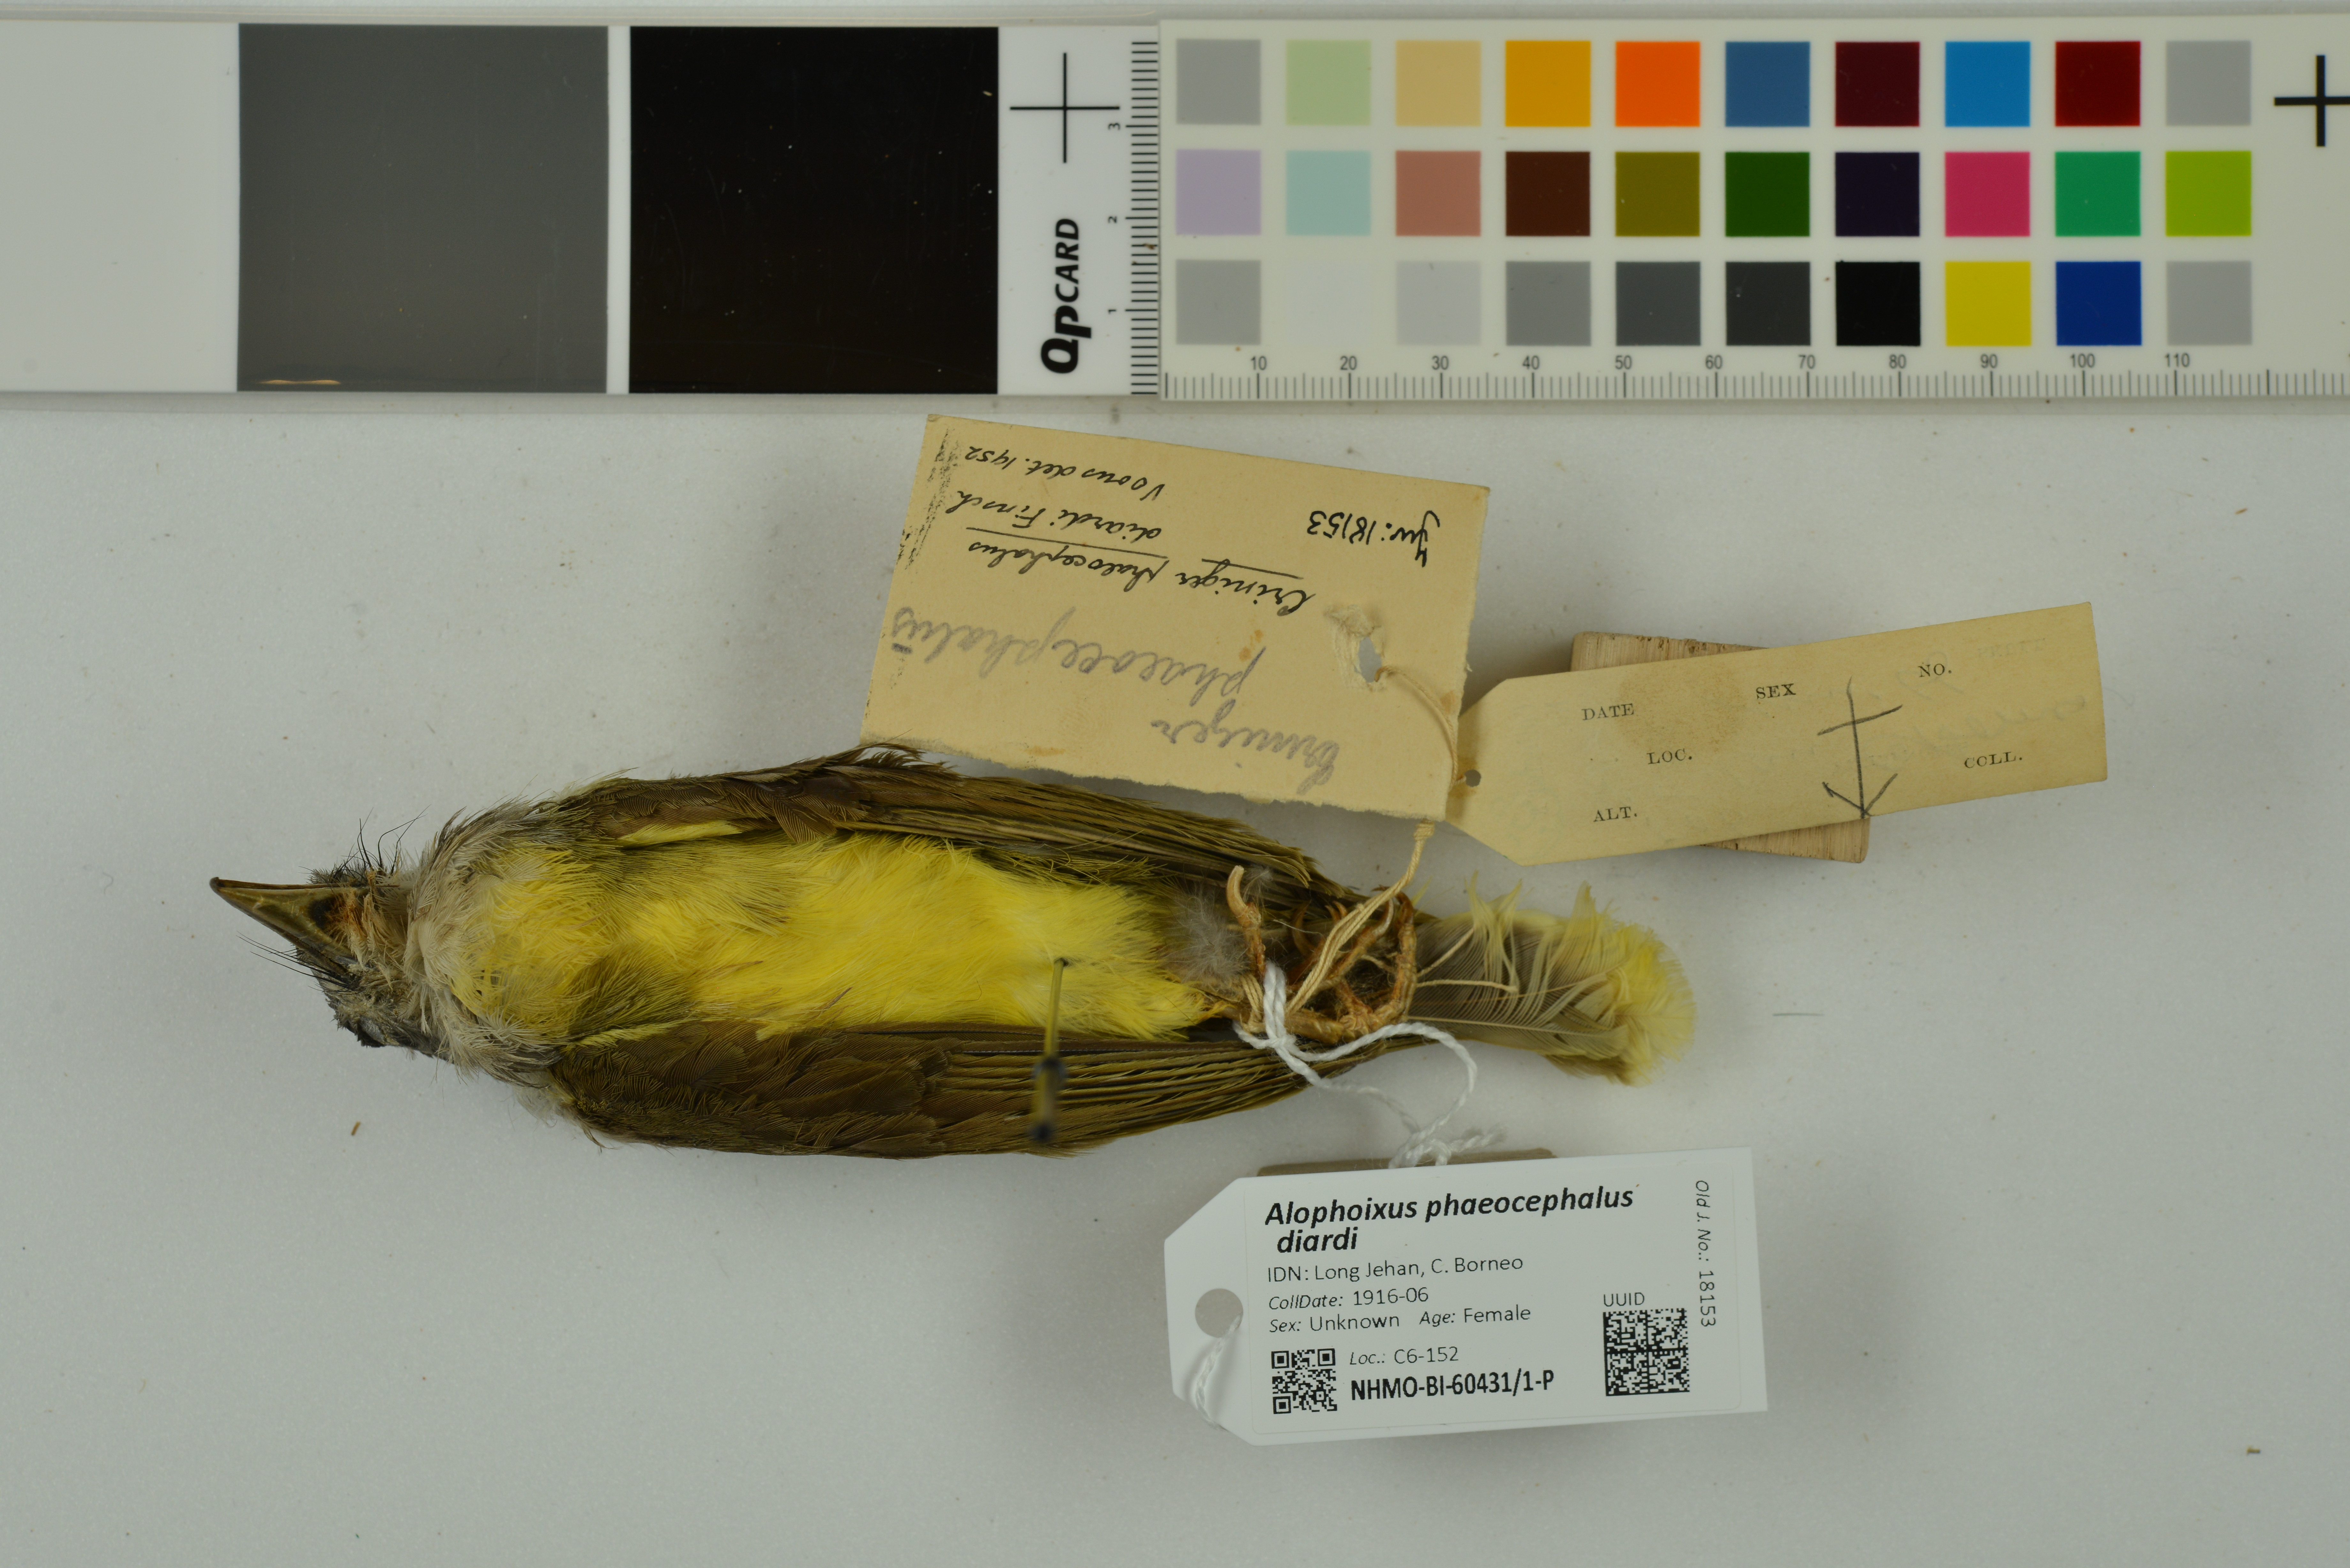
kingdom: Animalia
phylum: Chordata
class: Aves
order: Passeriformes
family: Pycnonotidae
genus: Alophoixus
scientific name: Alophoixus phaeocephalus
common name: Yellow-bellied bulbul
